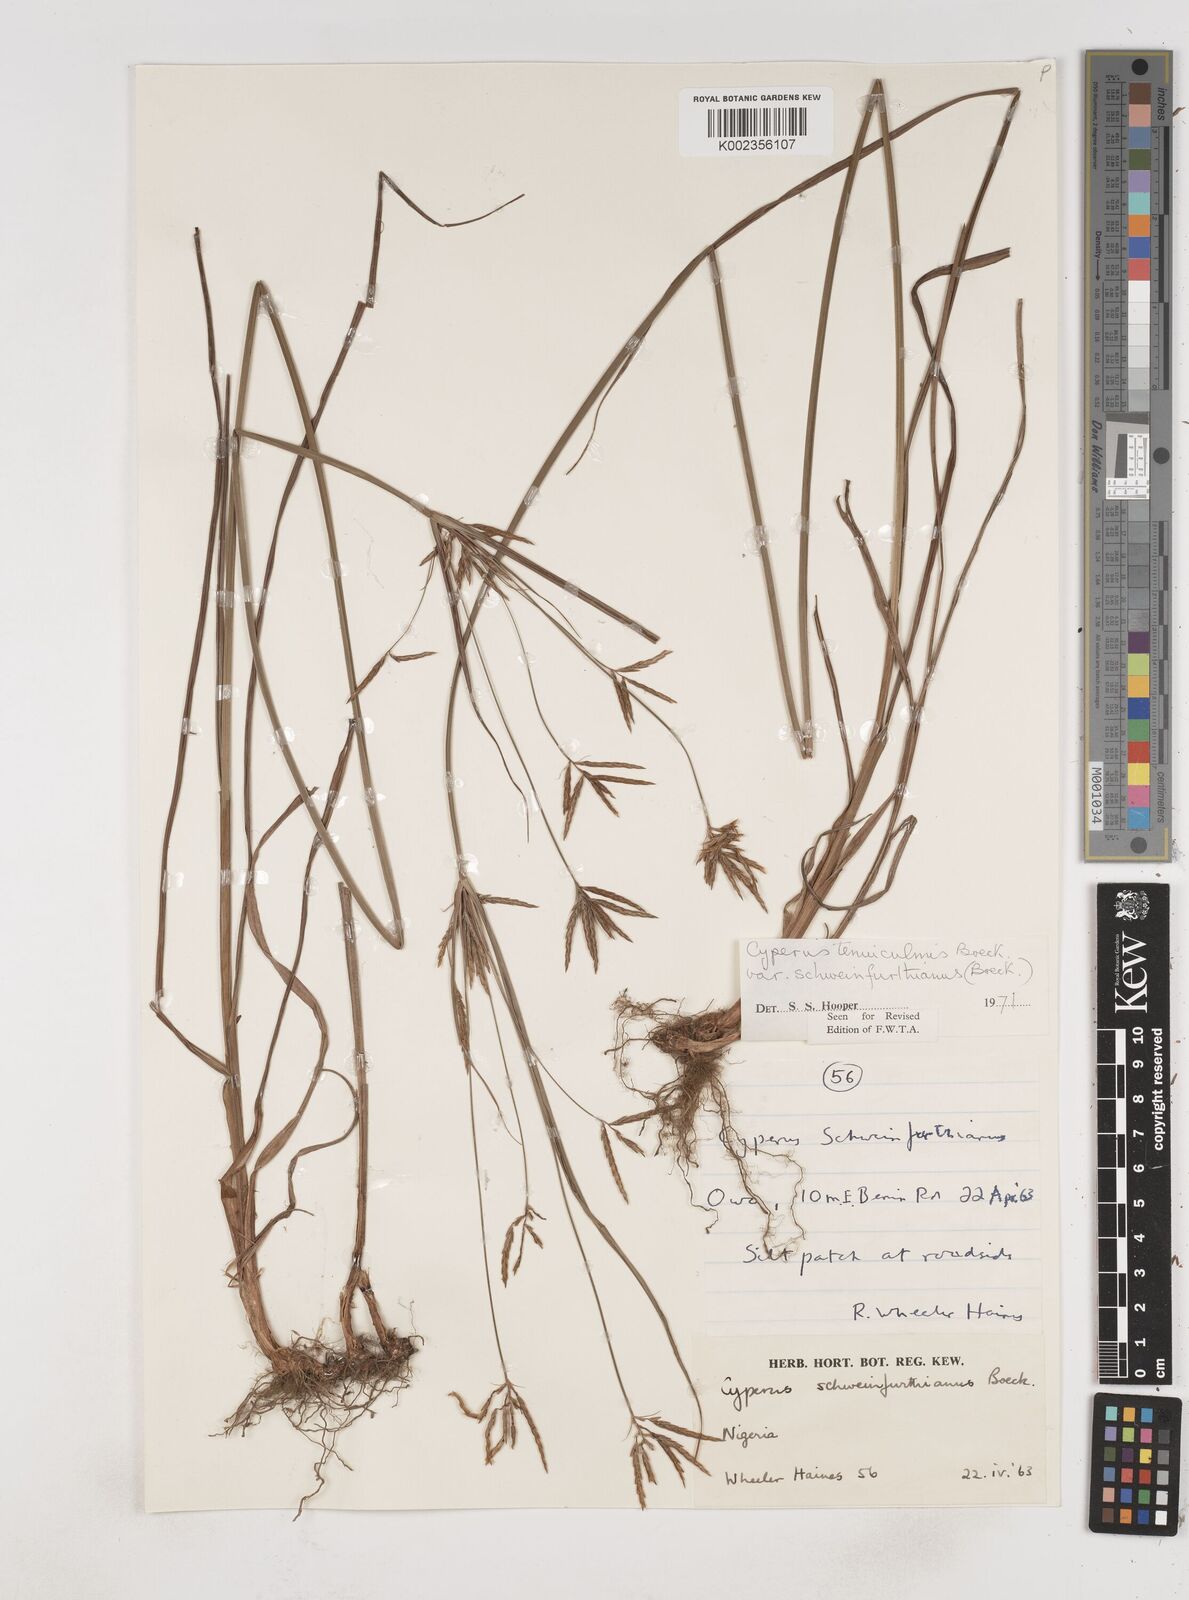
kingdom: Plantae
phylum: Tracheophyta
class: Liliopsida
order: Poales
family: Cyperaceae
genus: Cyperus
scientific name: Cyperus tenuiculmis
